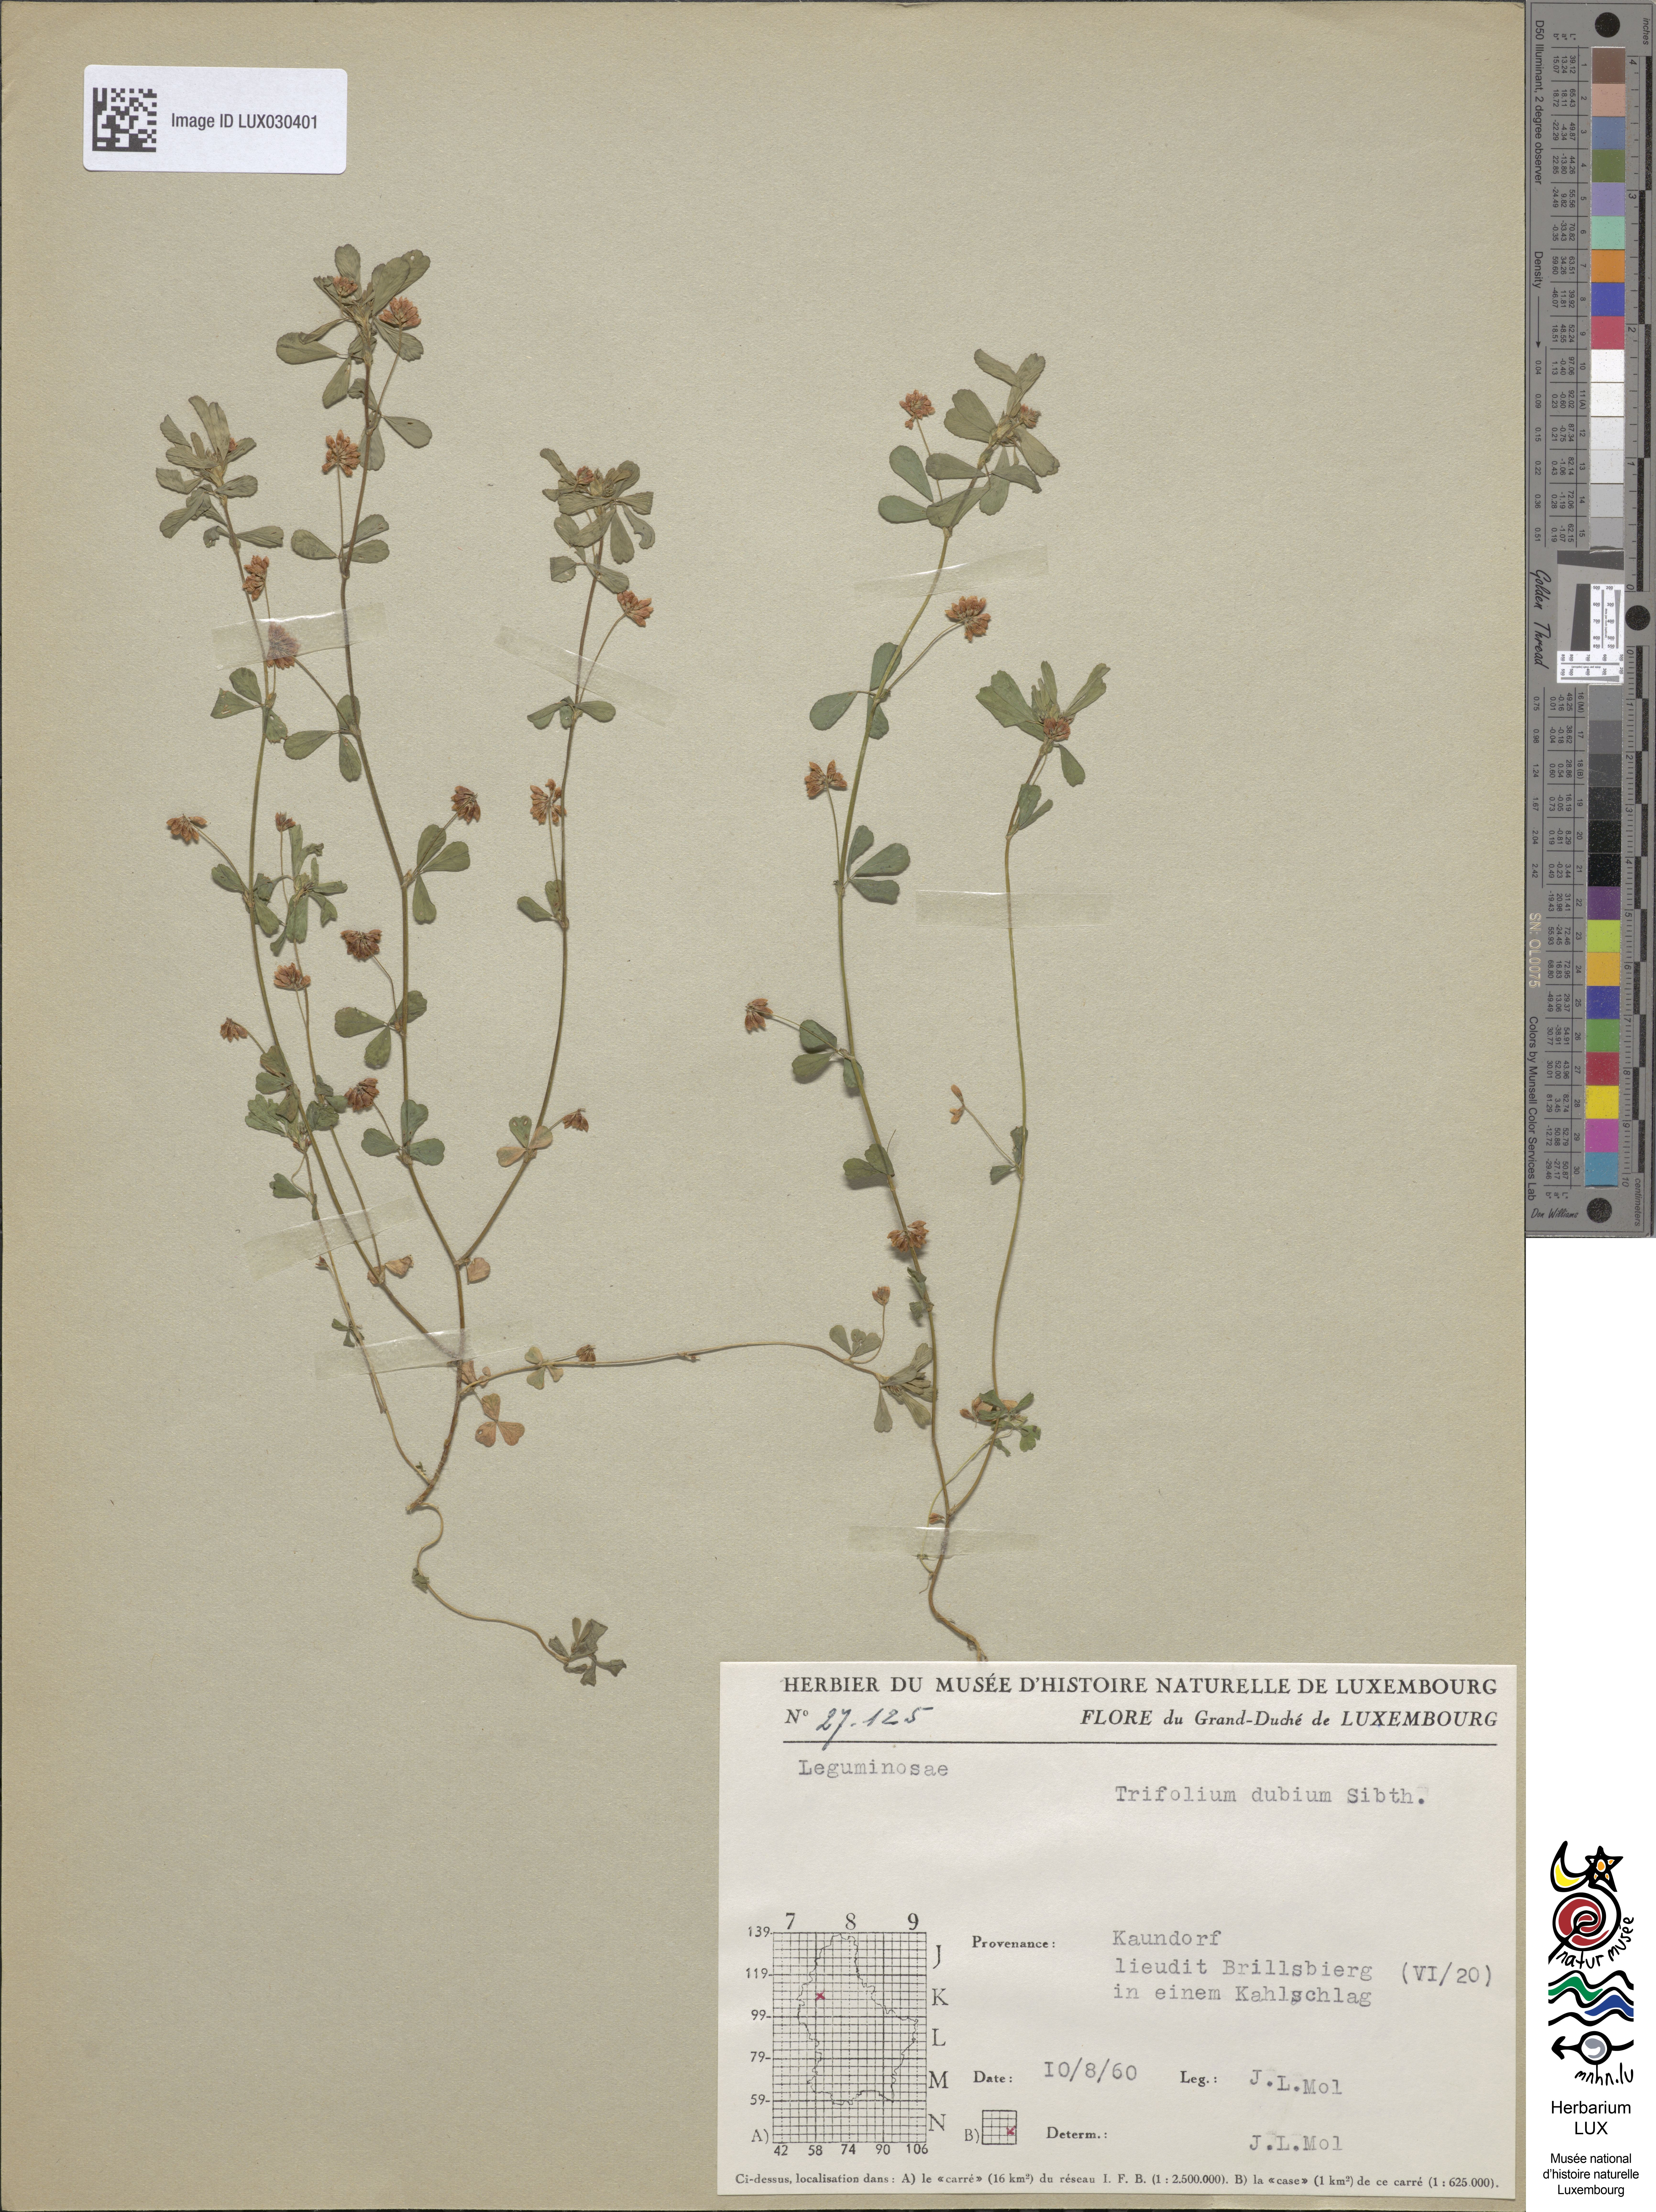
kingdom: Plantae
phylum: Tracheophyta
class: Magnoliopsida
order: Fabales
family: Fabaceae
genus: Trifolium
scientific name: Trifolium dubium
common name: Suckling clover
